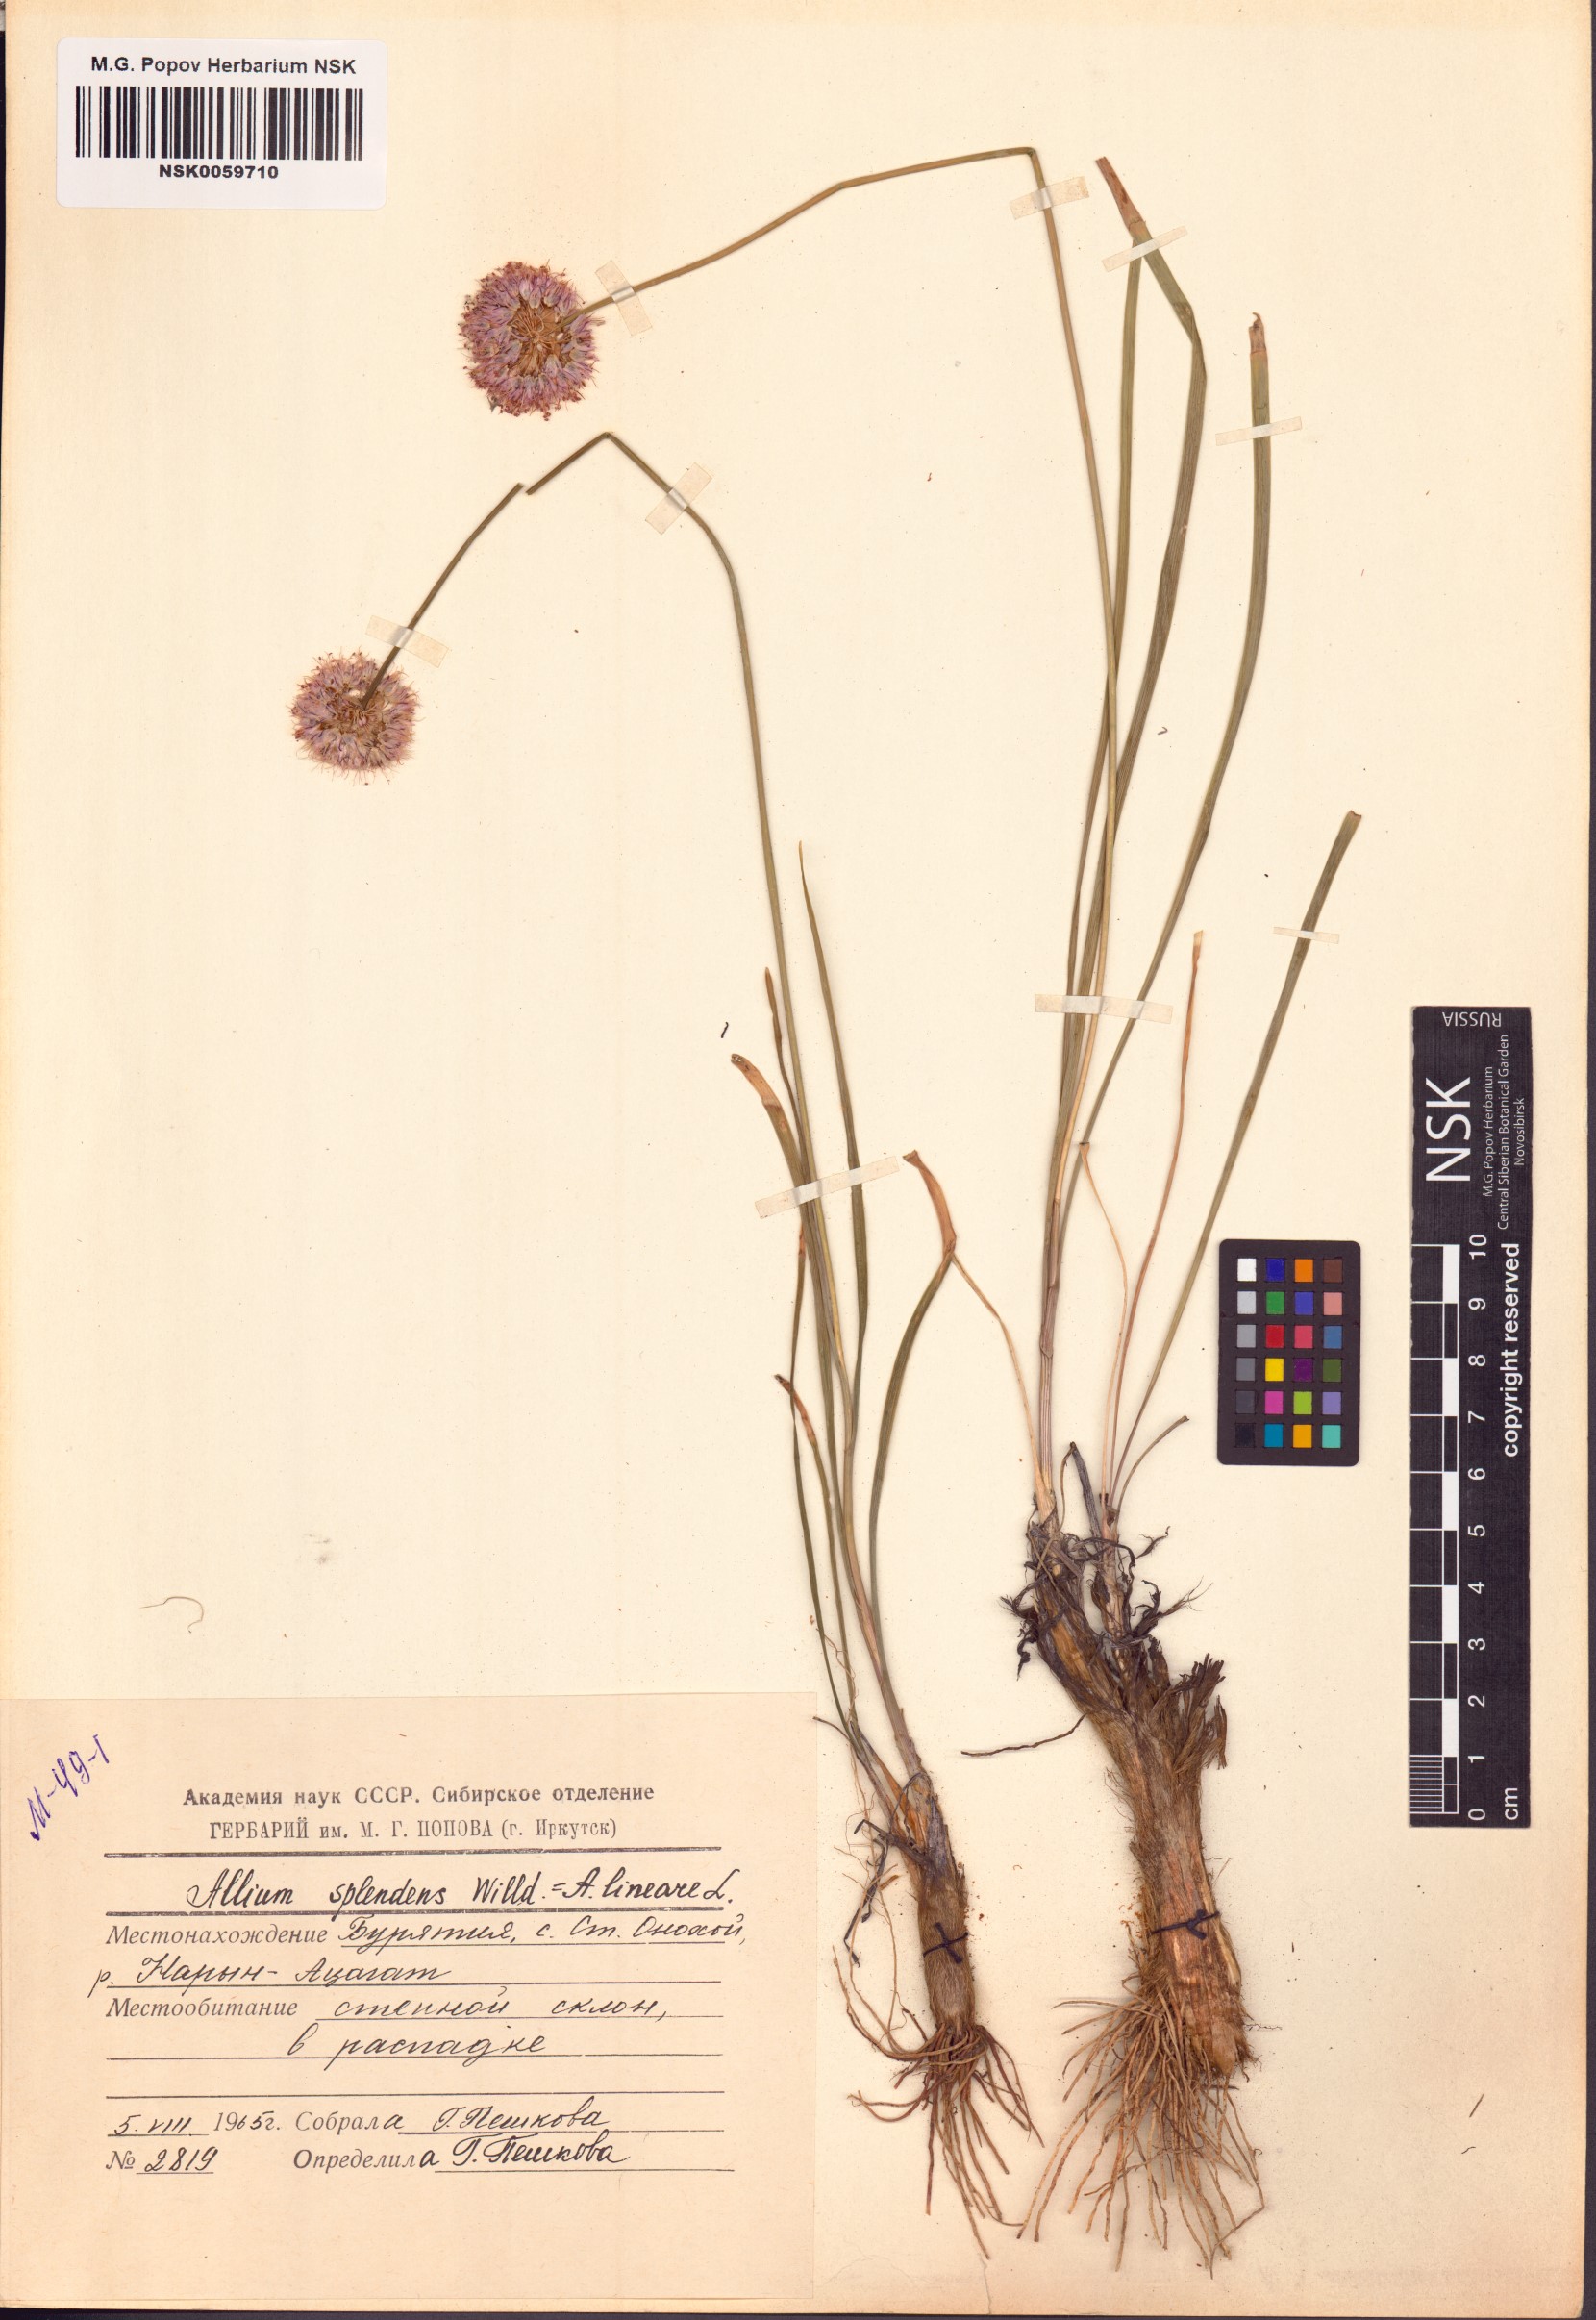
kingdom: Plantae
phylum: Tracheophyta
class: Liliopsida
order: Asparagales
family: Amaryllidaceae
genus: Allium
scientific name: Allium splendens
